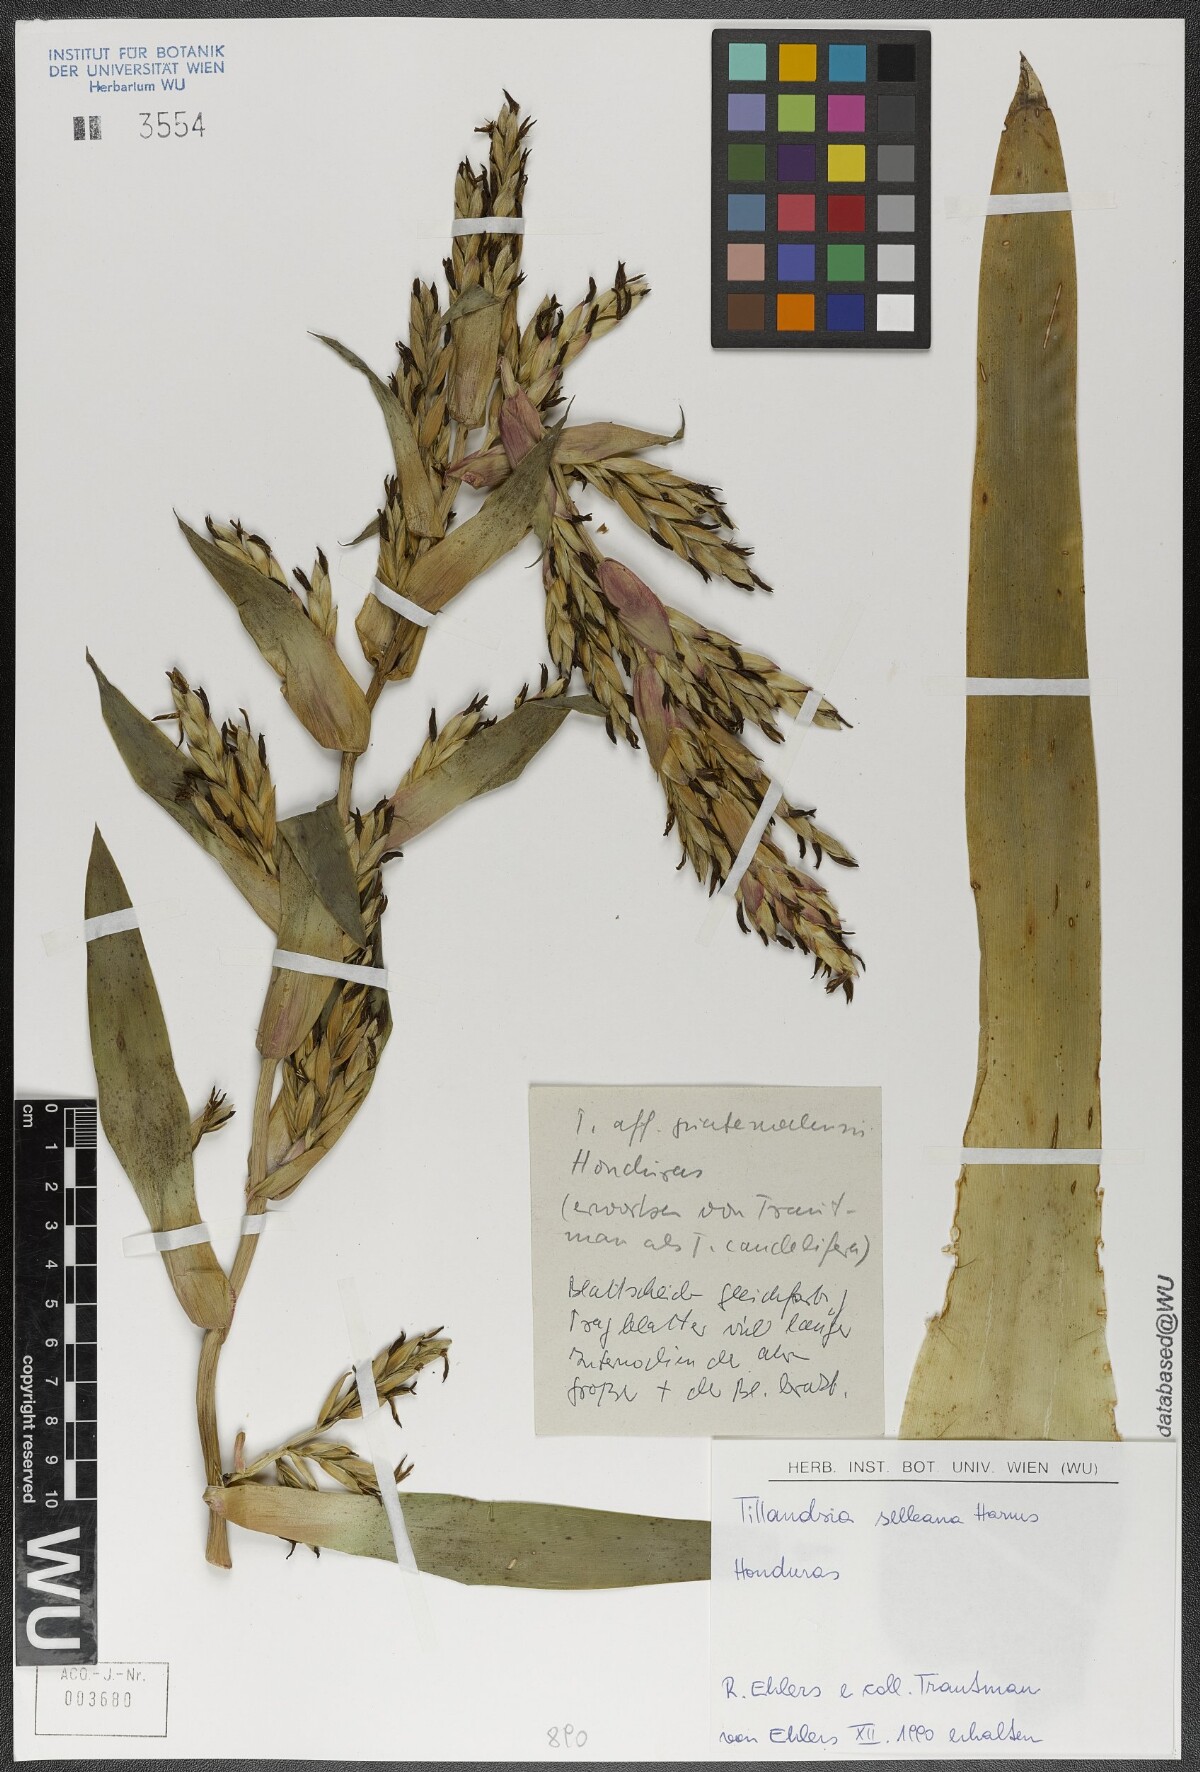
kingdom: Plantae
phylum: Tracheophyta
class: Liliopsida
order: Poales
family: Bromeliaceae
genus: Tillandsia
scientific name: Tillandsia selleana
